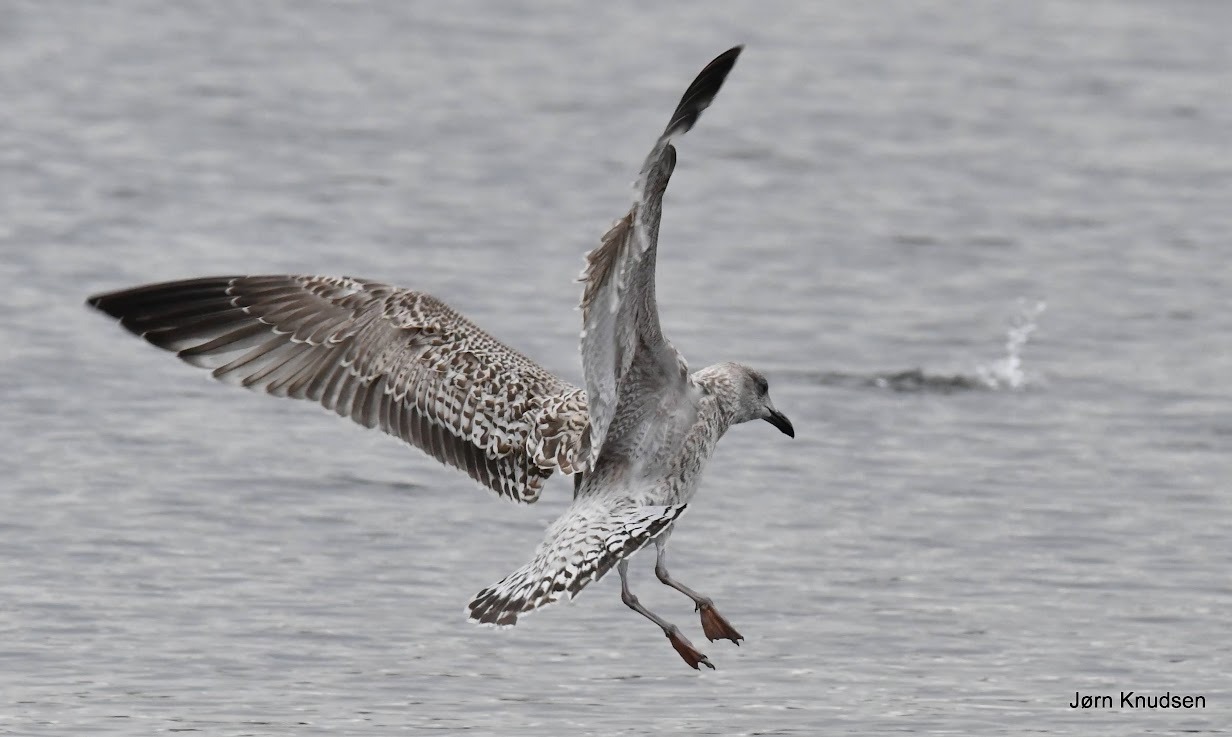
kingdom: Animalia
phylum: Chordata
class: Aves
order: Charadriiformes
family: Laridae
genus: Larus
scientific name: Larus marinus
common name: Svartbag
